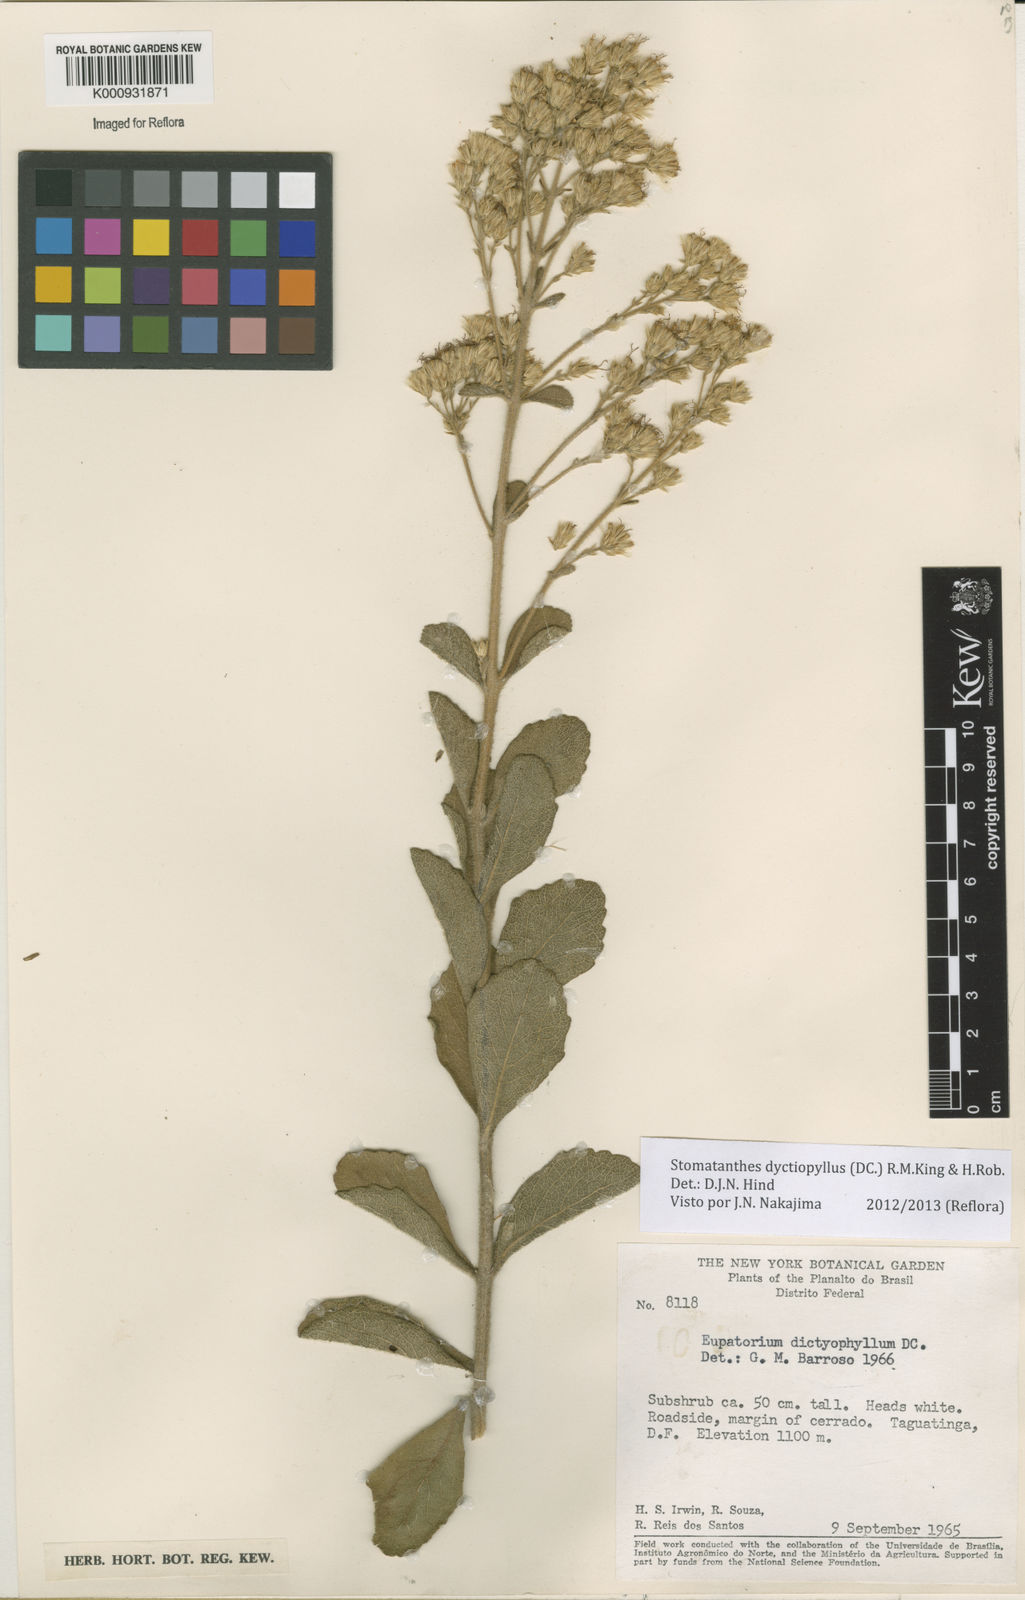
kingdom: Plantae
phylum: Tracheophyta
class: Magnoliopsida
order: Asterales
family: Asteraceae
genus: Stomatanthes
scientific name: Stomatanthes dictyophyllus
